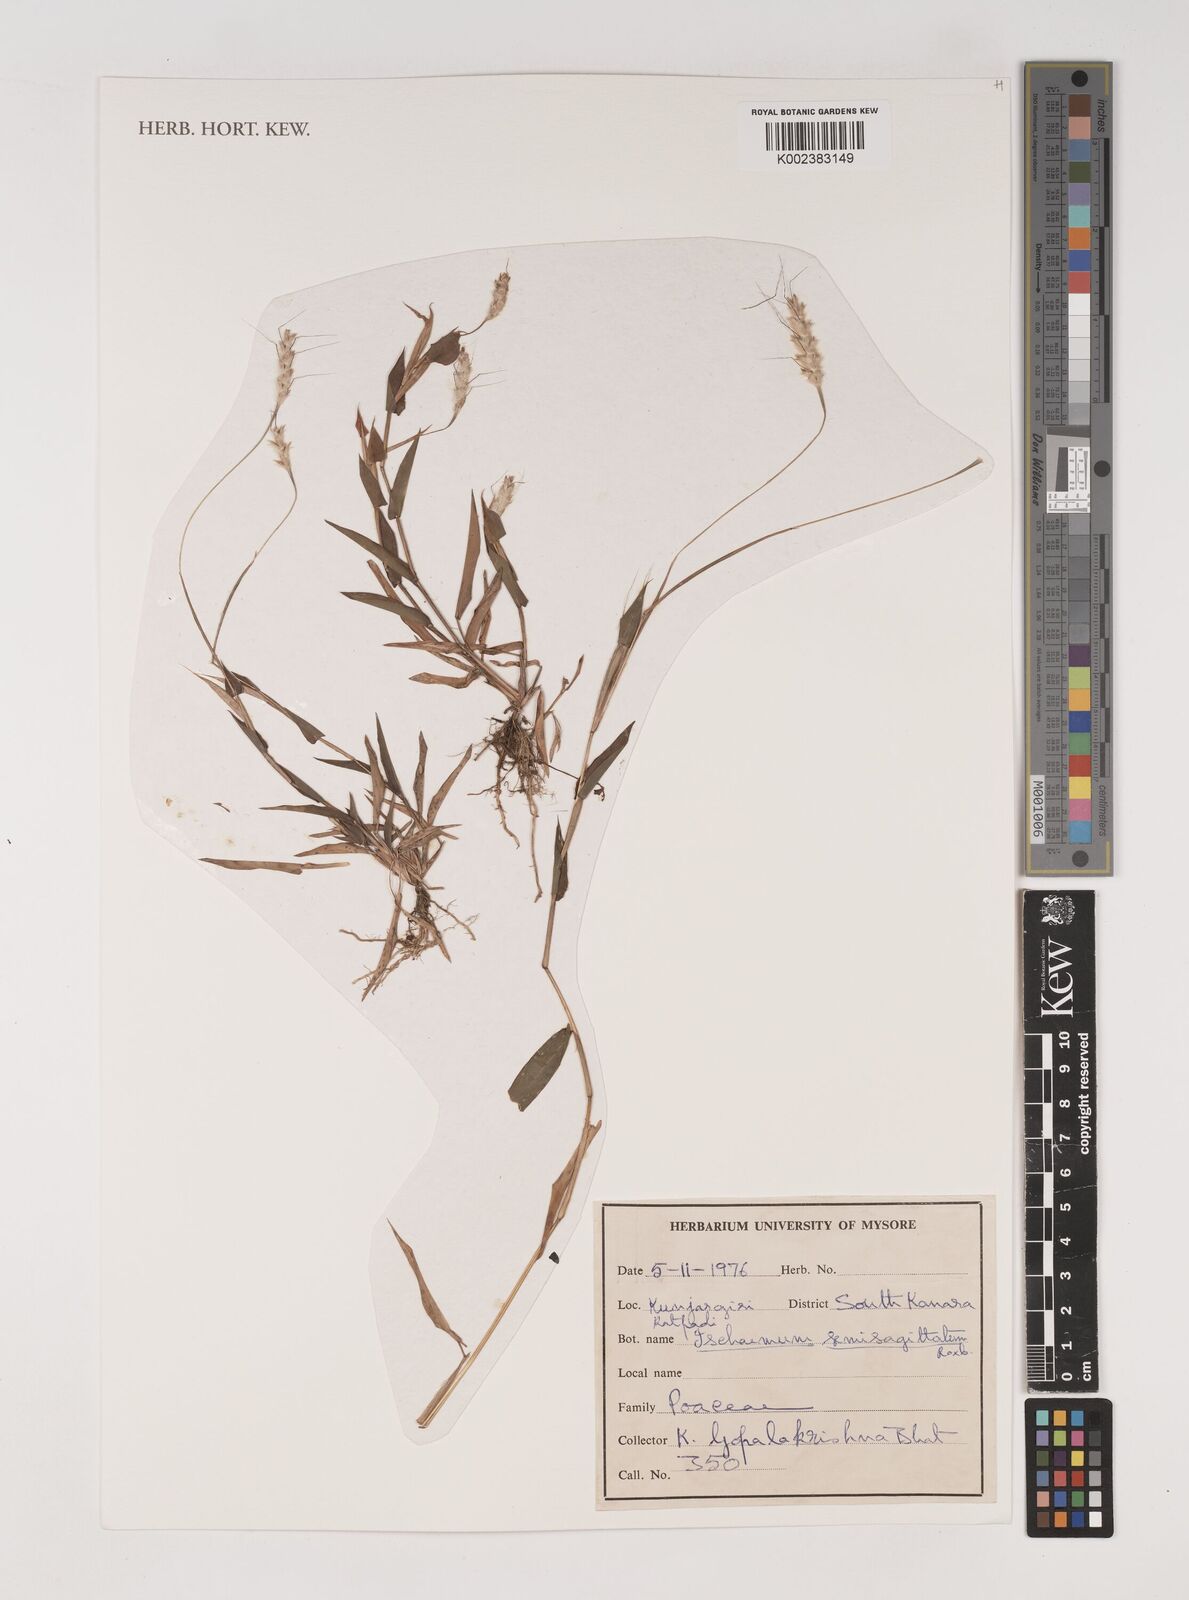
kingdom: Plantae
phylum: Tracheophyta
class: Liliopsida
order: Poales
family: Poaceae
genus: Ischaemum
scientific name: Ischaemum semisagittatum
